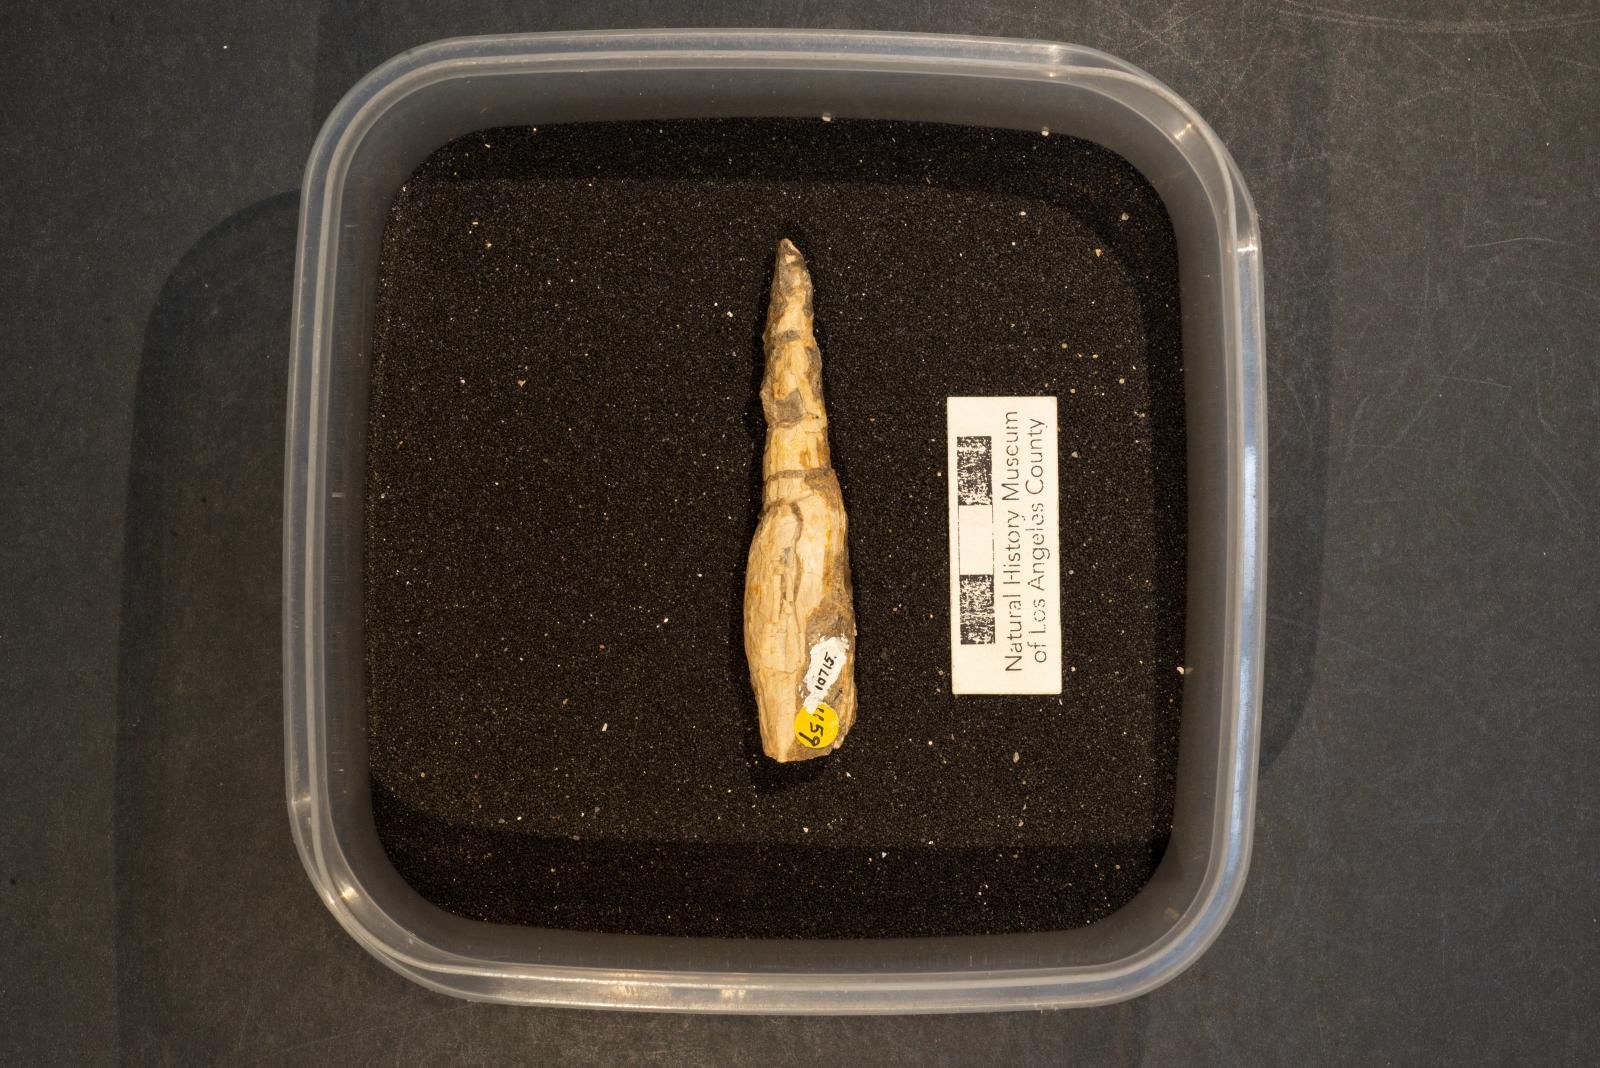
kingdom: Animalia
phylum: Mollusca
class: Gastropoda
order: Neogastropoda
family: Ptychatractidae
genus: Exilia
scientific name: Exilia stechesonae
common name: Snail
